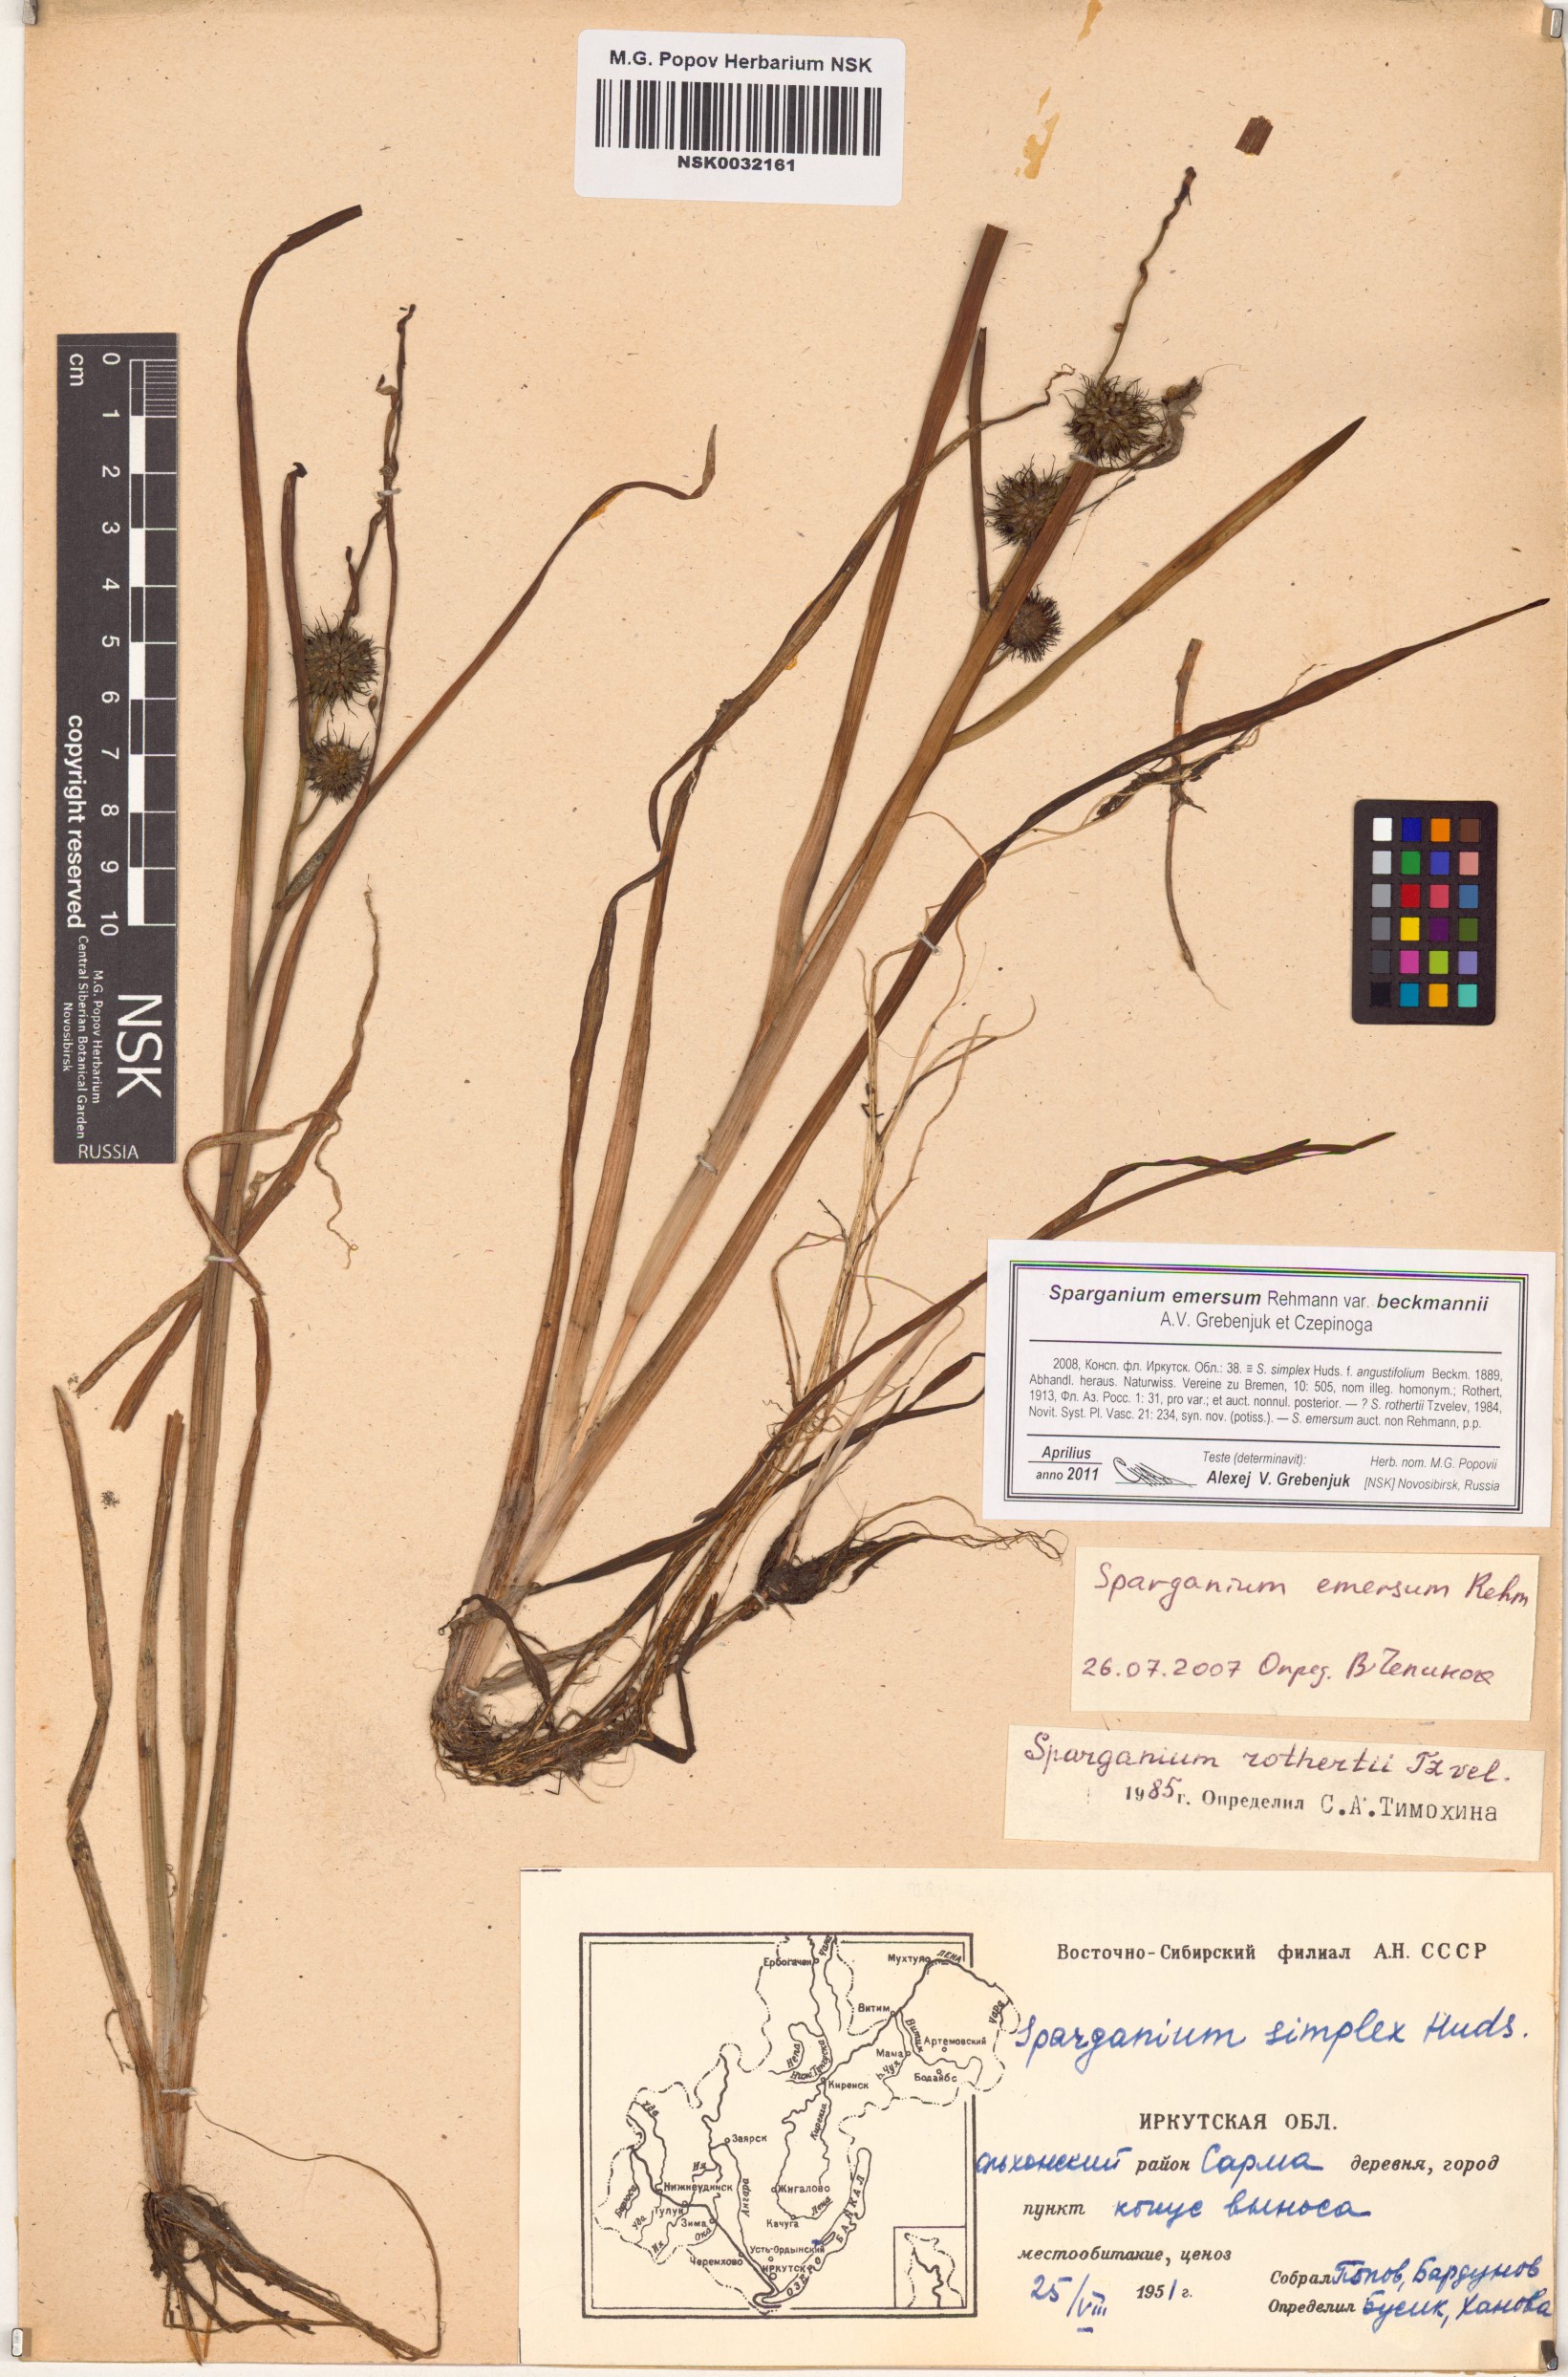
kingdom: Plantae
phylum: Tracheophyta
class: Liliopsida
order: Poales
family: Typhaceae
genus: Sparganium
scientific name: Sparganium emersum
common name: Unbranched bur-reed
